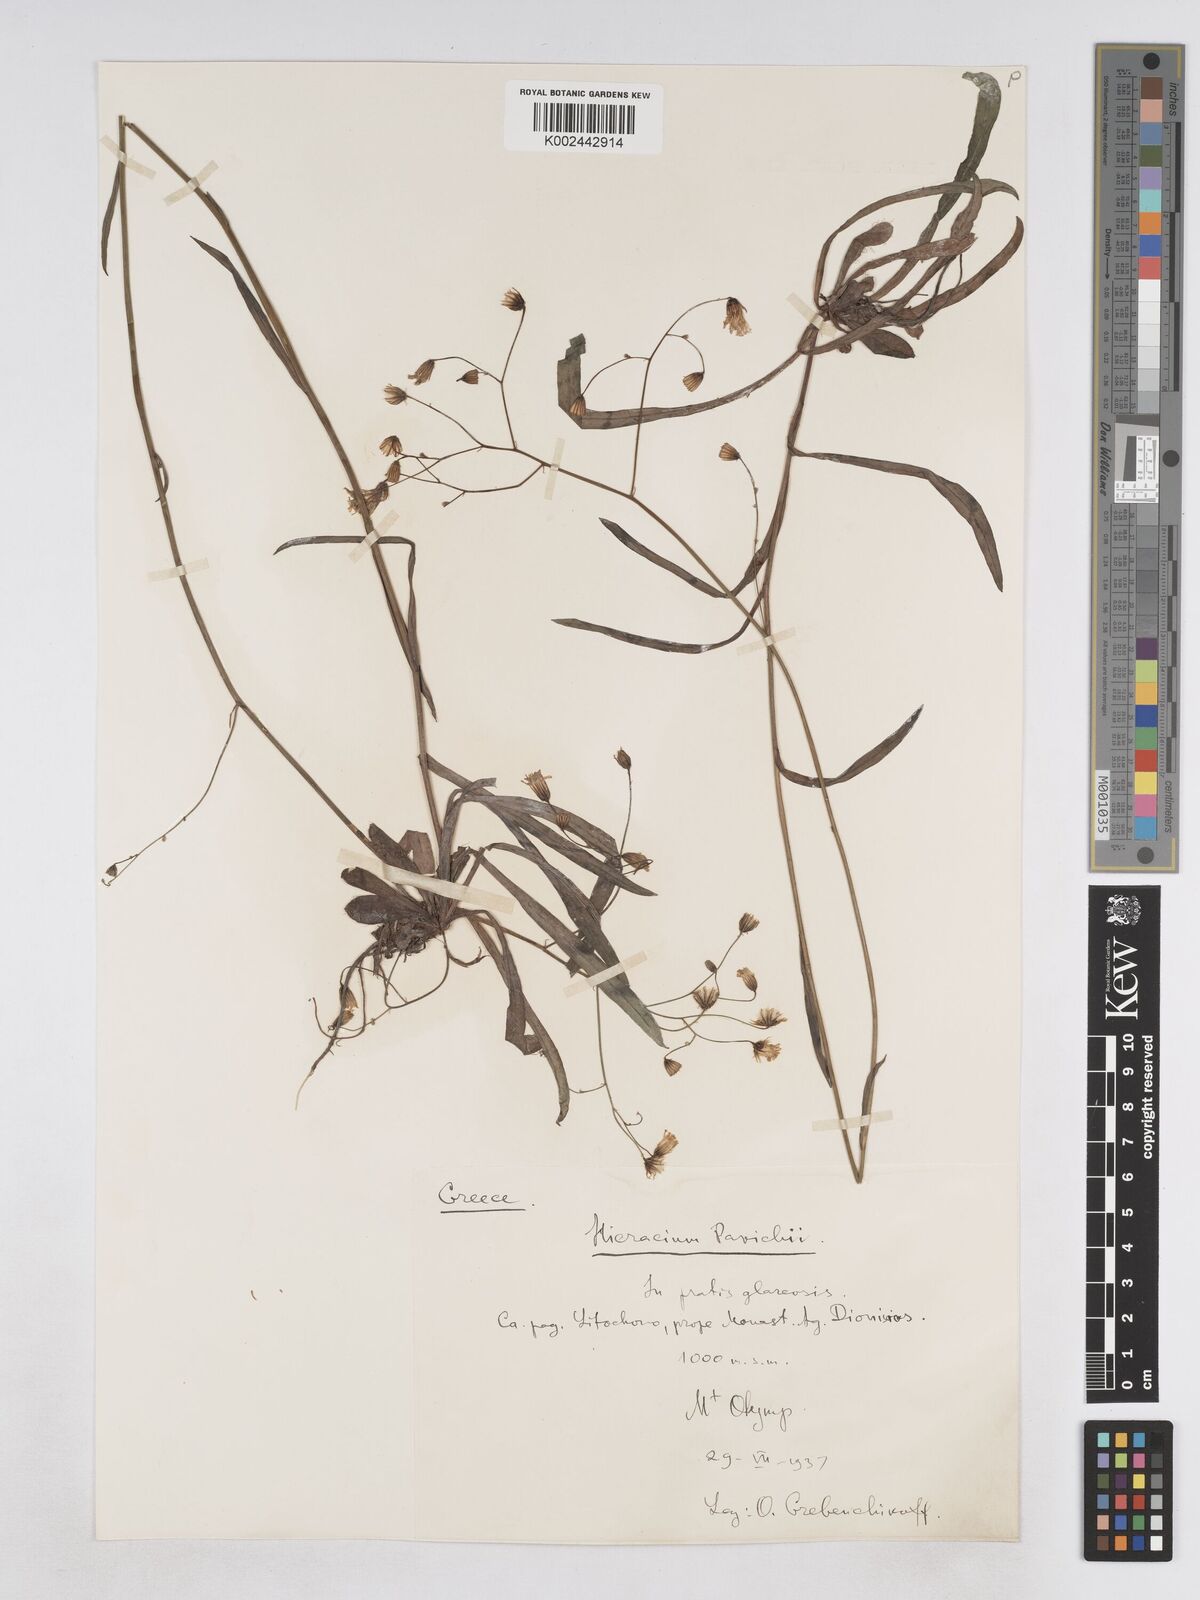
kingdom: Plantae
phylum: Tracheophyta
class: Magnoliopsida
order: Asterales
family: Asteraceae
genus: Pilosella
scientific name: Pilosella pavichii
